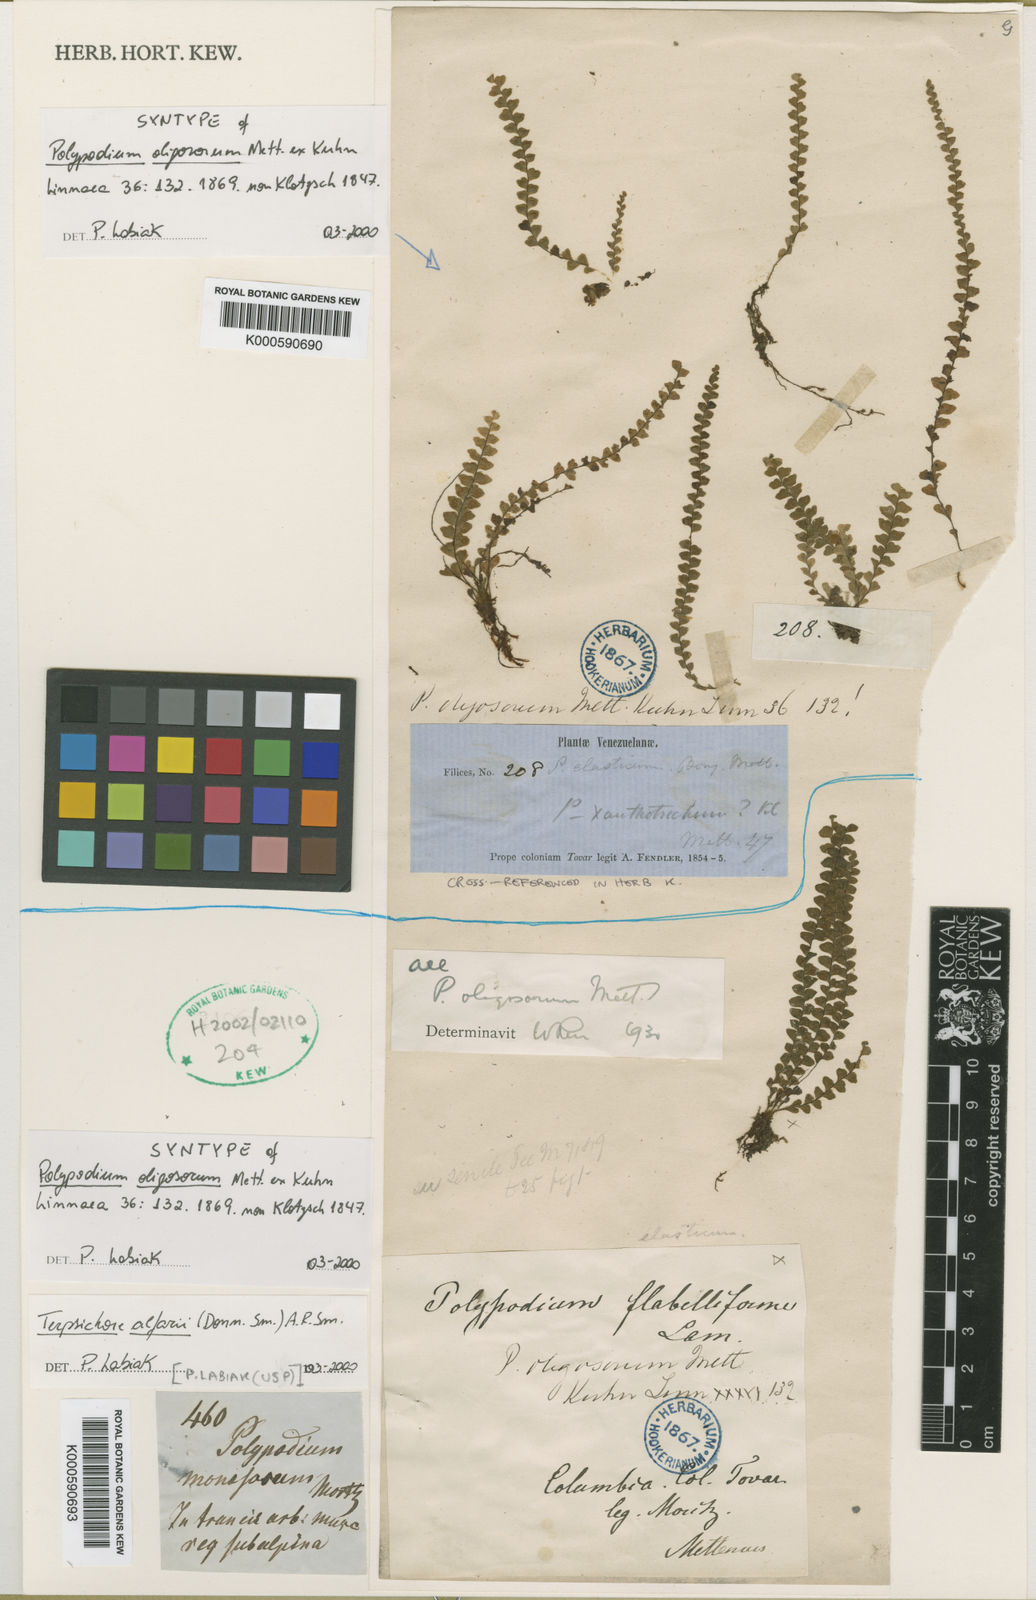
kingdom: Plantae
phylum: Tracheophyta
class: Polypodiopsida
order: Polypodiales
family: Polypodiaceae
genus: Terpsichore
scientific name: Terpsichore
